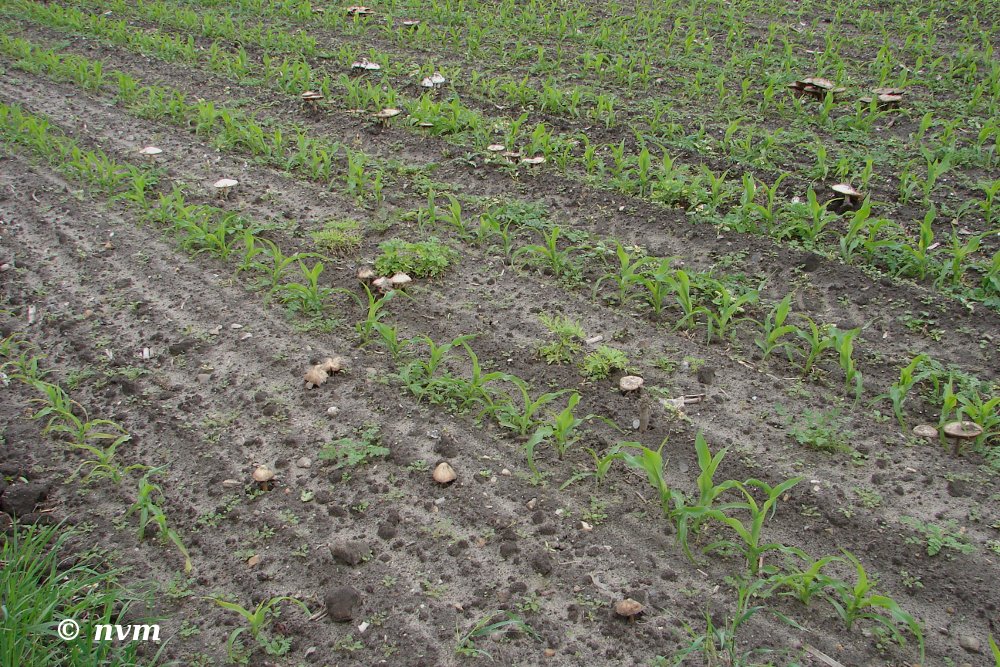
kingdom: Fungi
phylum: Basidiomycota
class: Agaricomycetes
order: Agaricales
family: Pluteaceae
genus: Volvopluteus
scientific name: Volvopluteus gloiocephalus
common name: høj posesvamp
